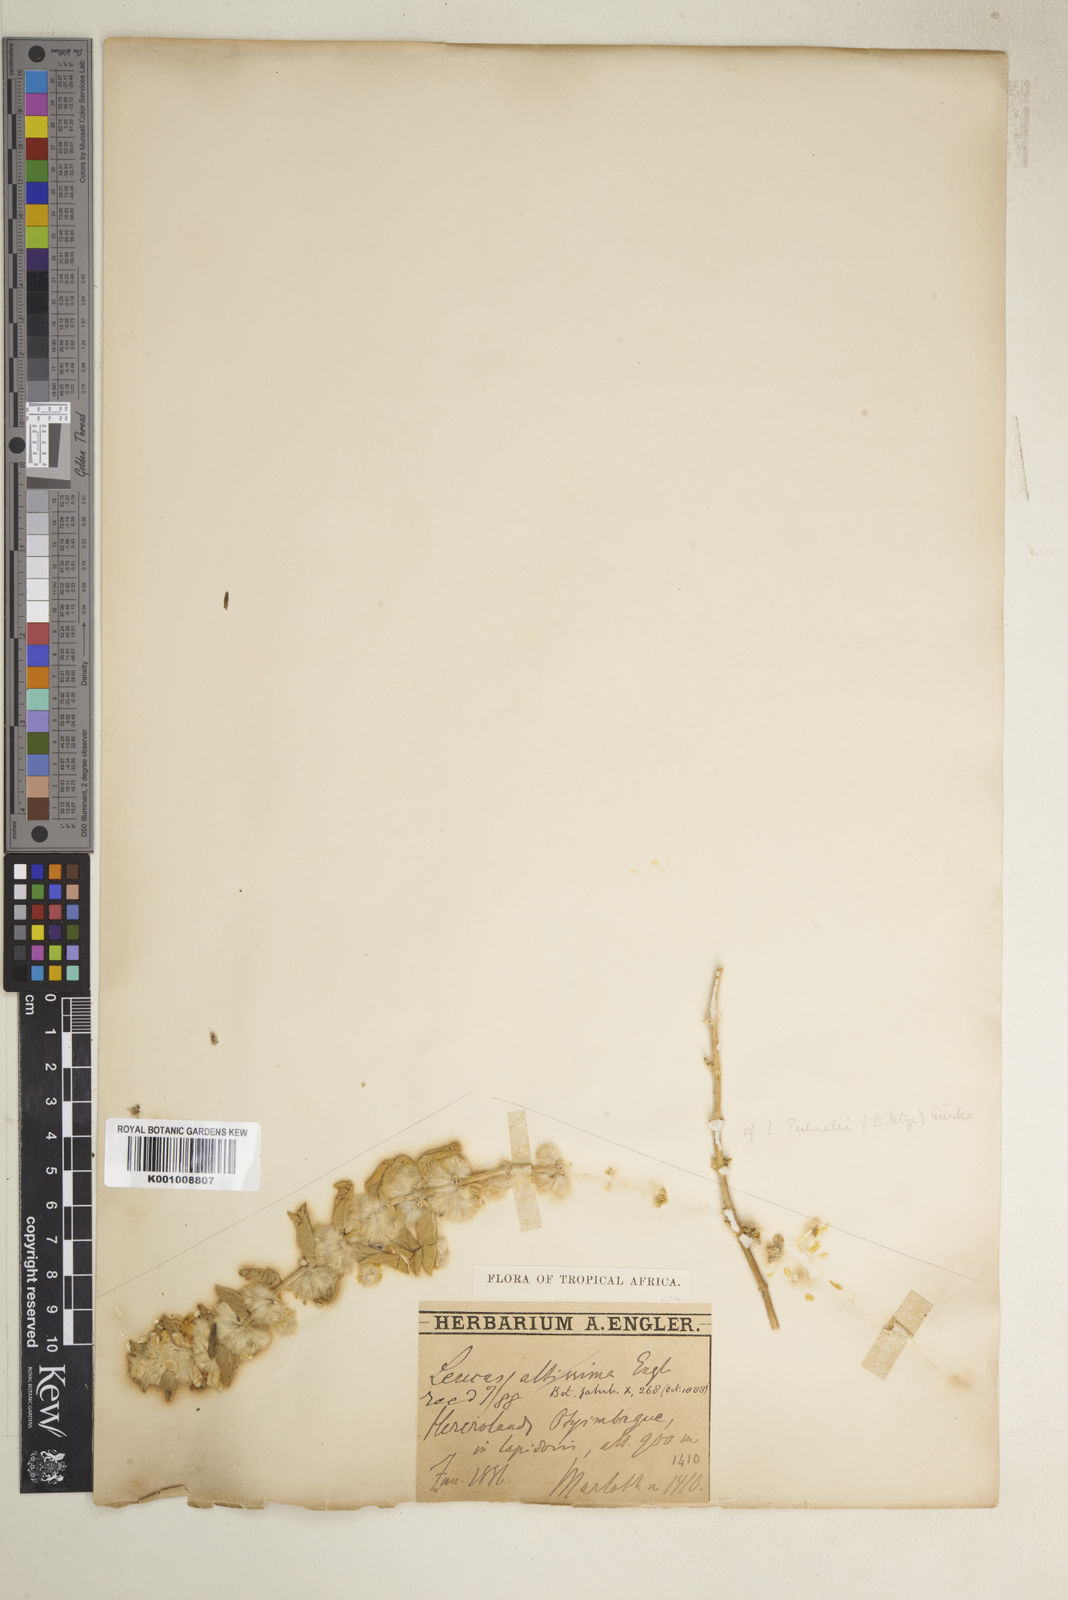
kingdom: Plantae
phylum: Tracheophyta
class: Magnoliopsida
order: Lamiales
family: Lamiaceae
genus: Leucas
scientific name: Leucas pechuelii
